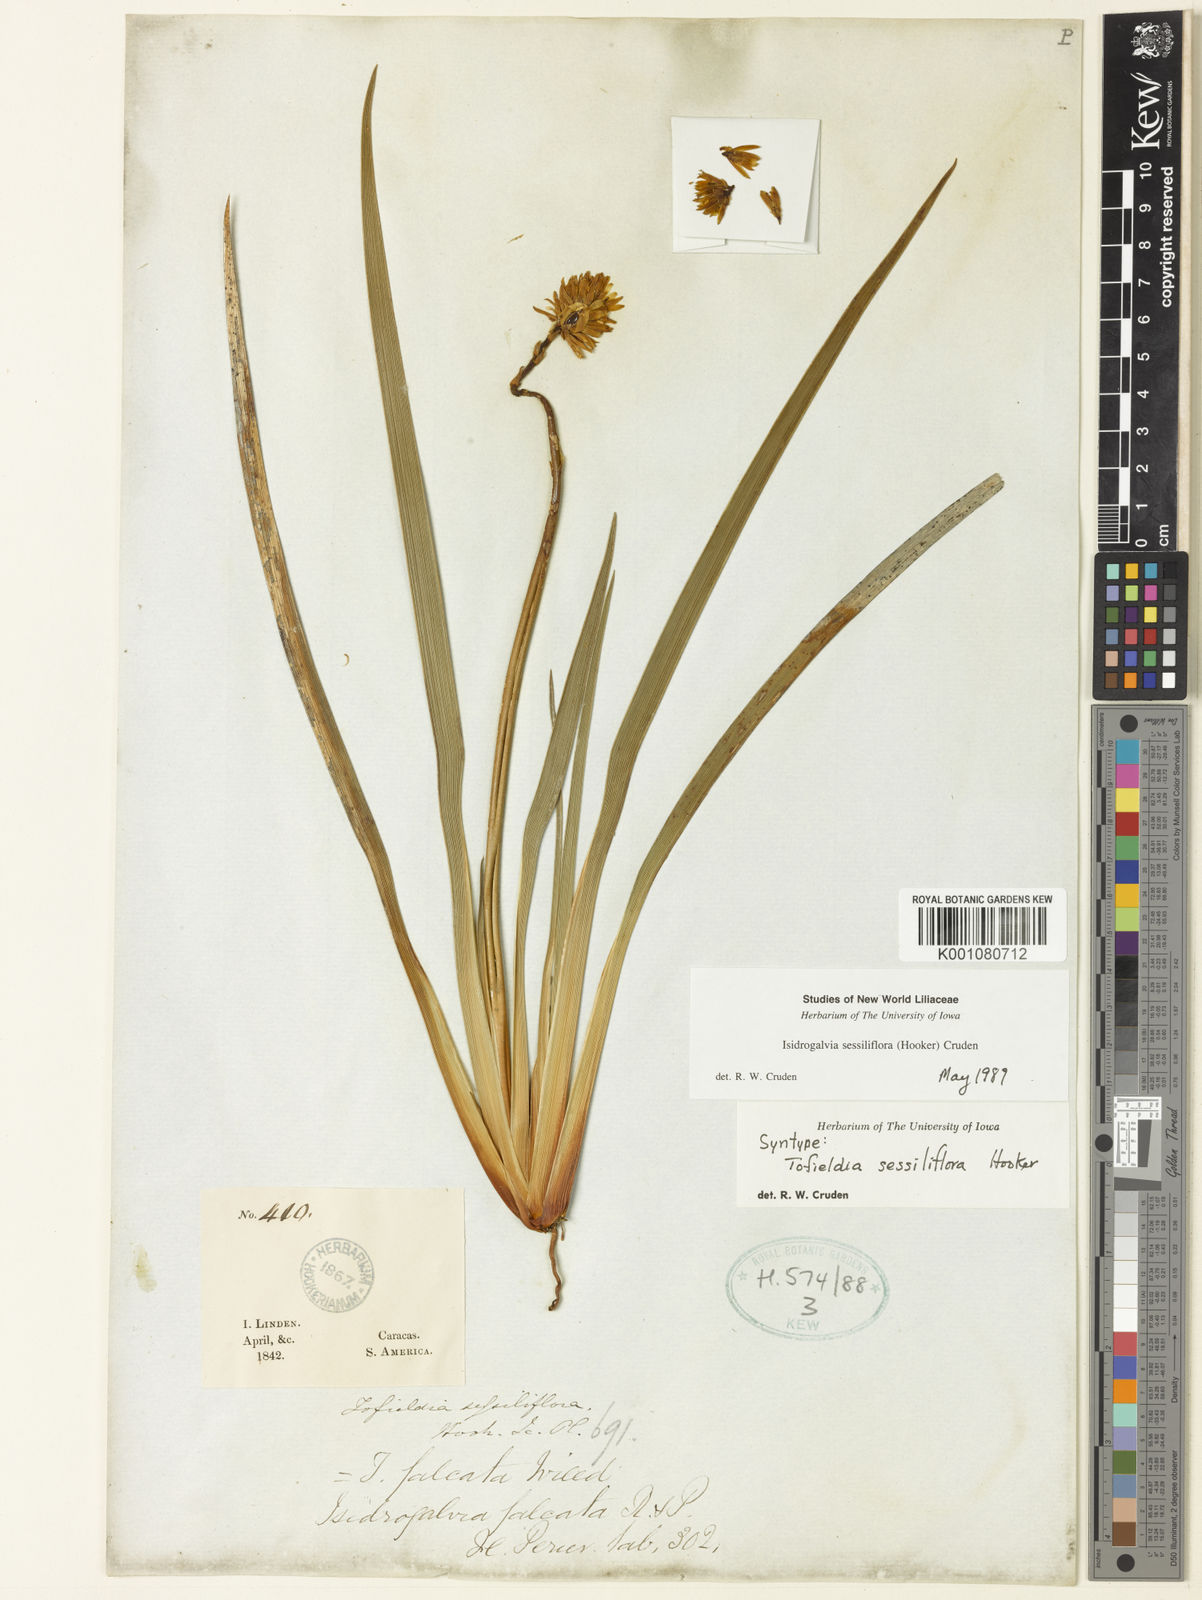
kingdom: Plantae
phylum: Tracheophyta
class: Liliopsida
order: Alismatales
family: Tofieldiaceae
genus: Harperocallis
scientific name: Harperocallis sessiliflora
